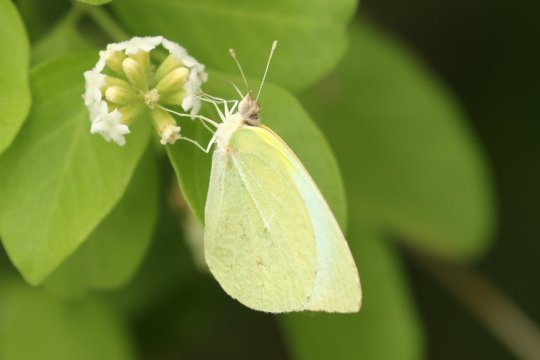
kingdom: Animalia
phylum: Arthropoda
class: Insecta
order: Lepidoptera
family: Pieridae
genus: Kricogonia
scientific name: Kricogonia lyside
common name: Lyside Sulphur
